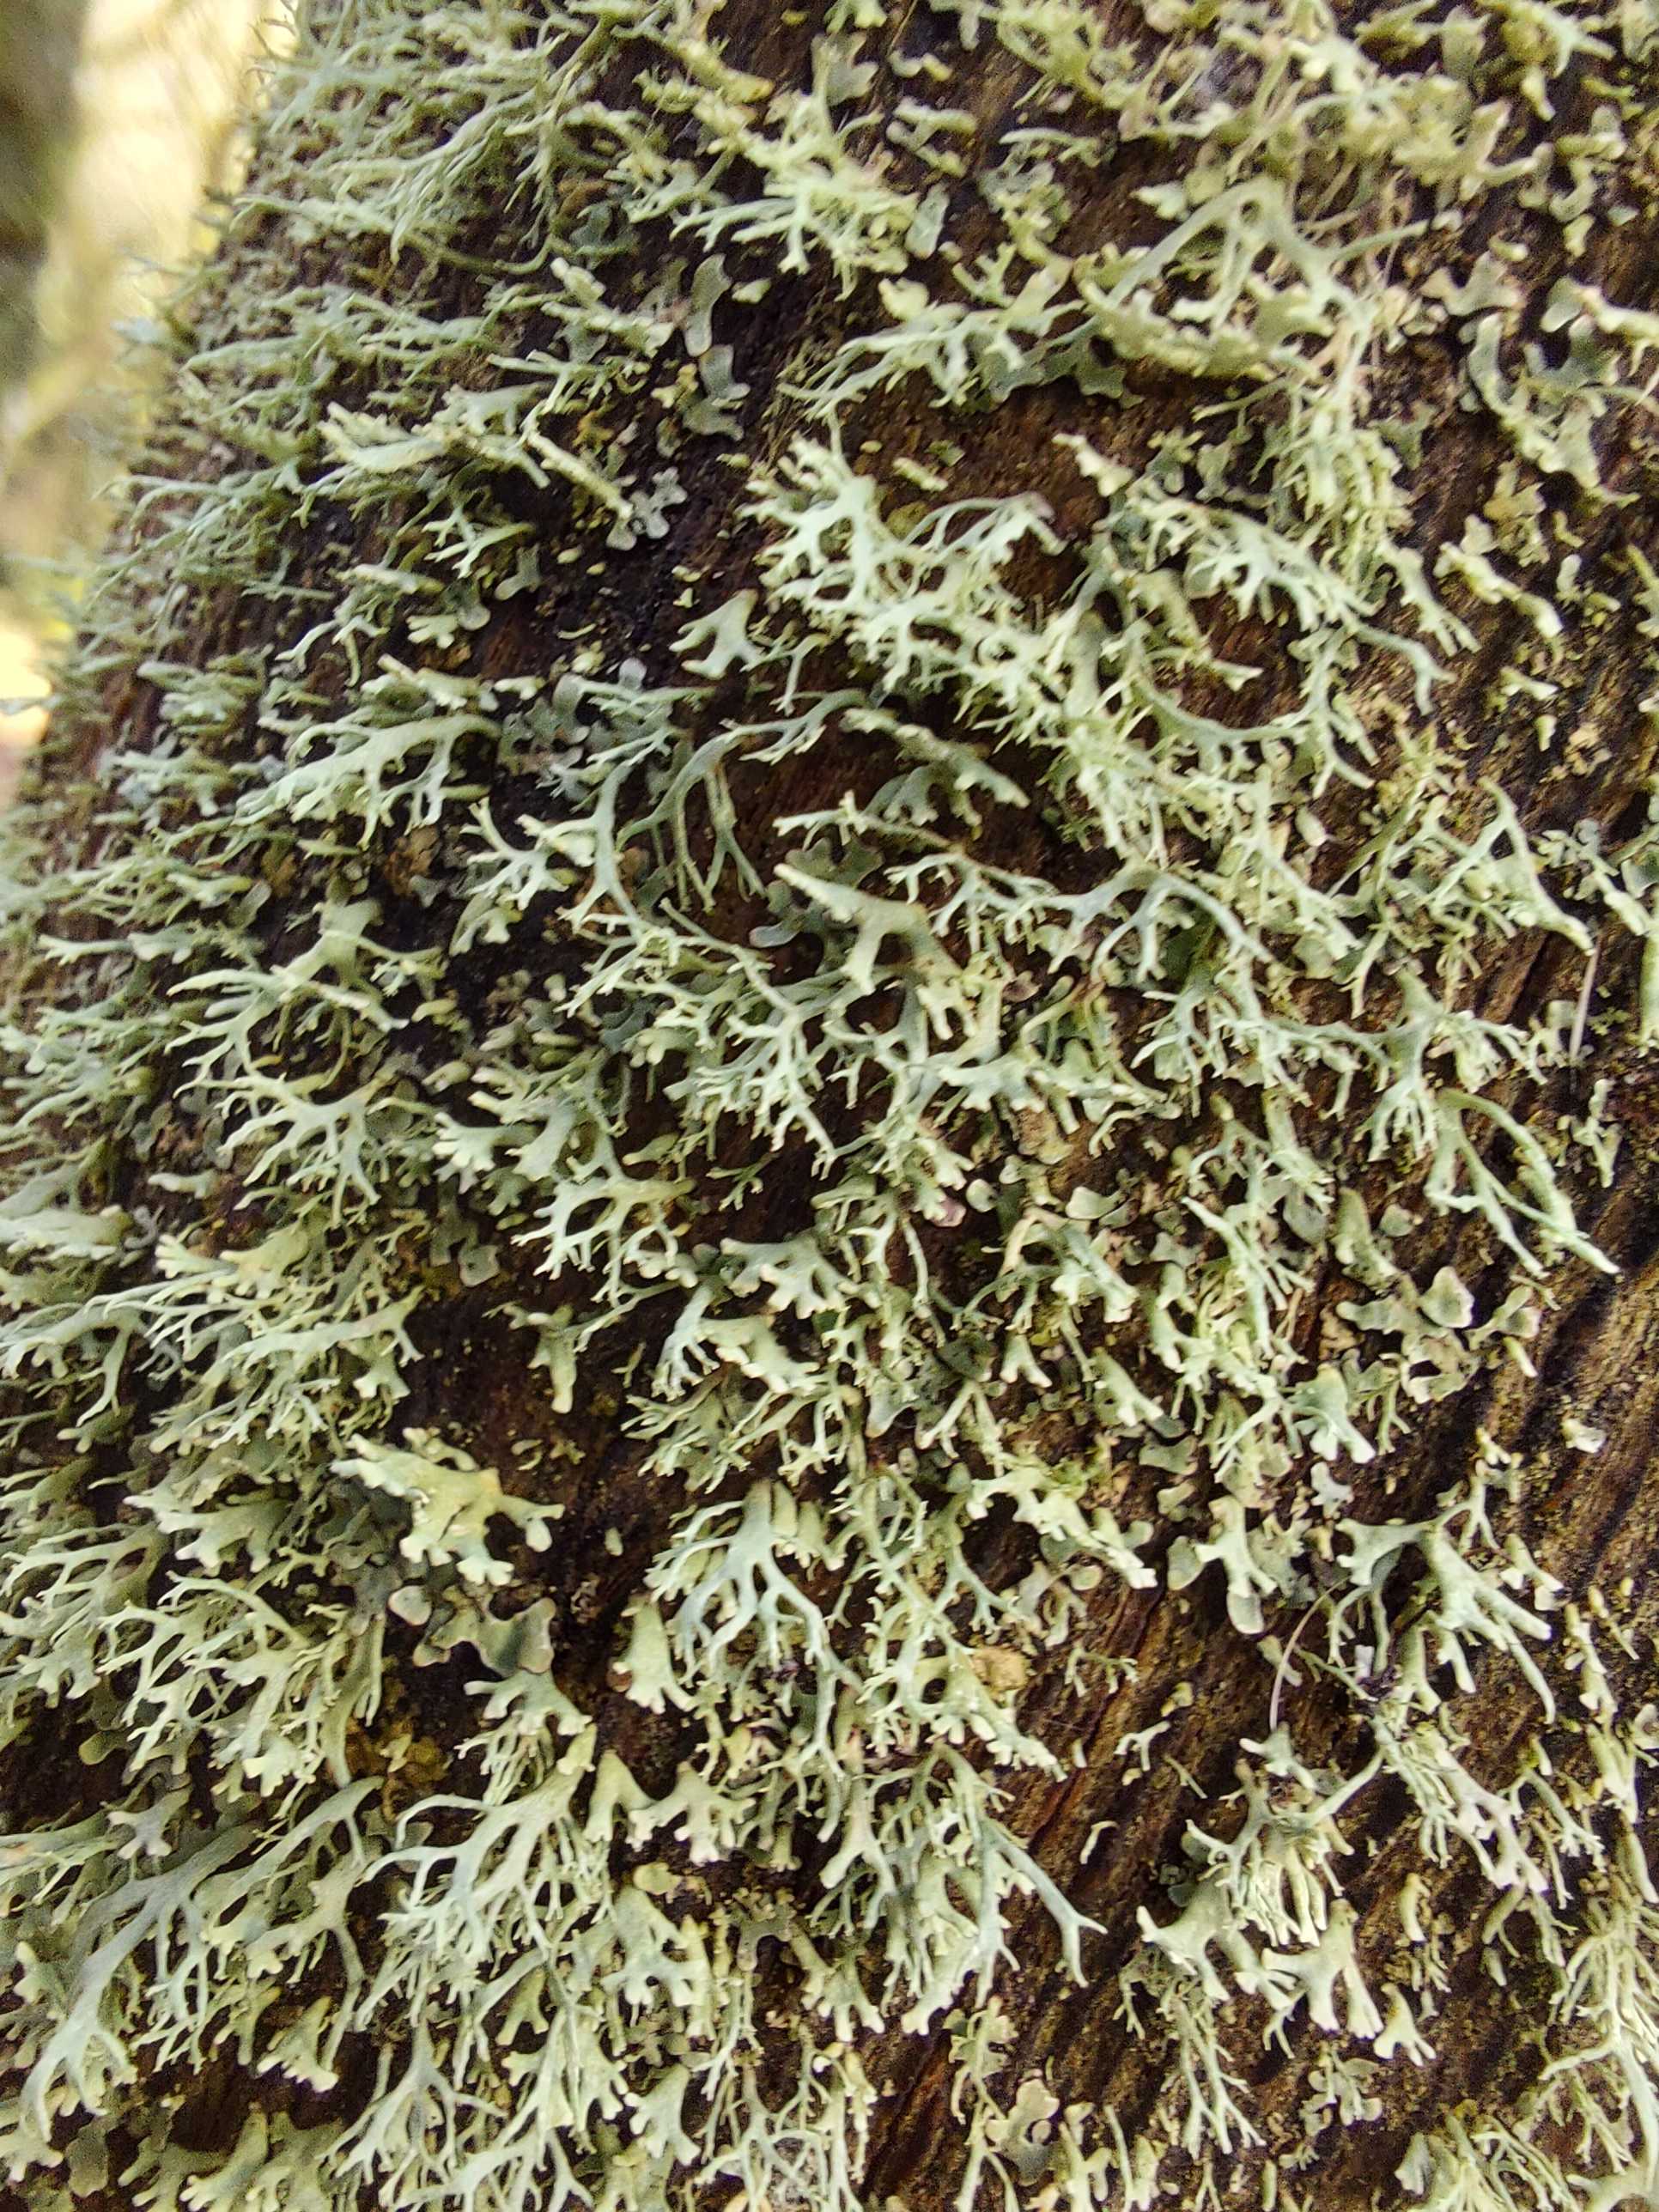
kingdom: Fungi
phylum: Ascomycota
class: Lecanoromycetes
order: Lecanorales
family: Parmeliaceae
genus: Evernia
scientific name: Evernia prunastri
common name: almindelig slåenlav
